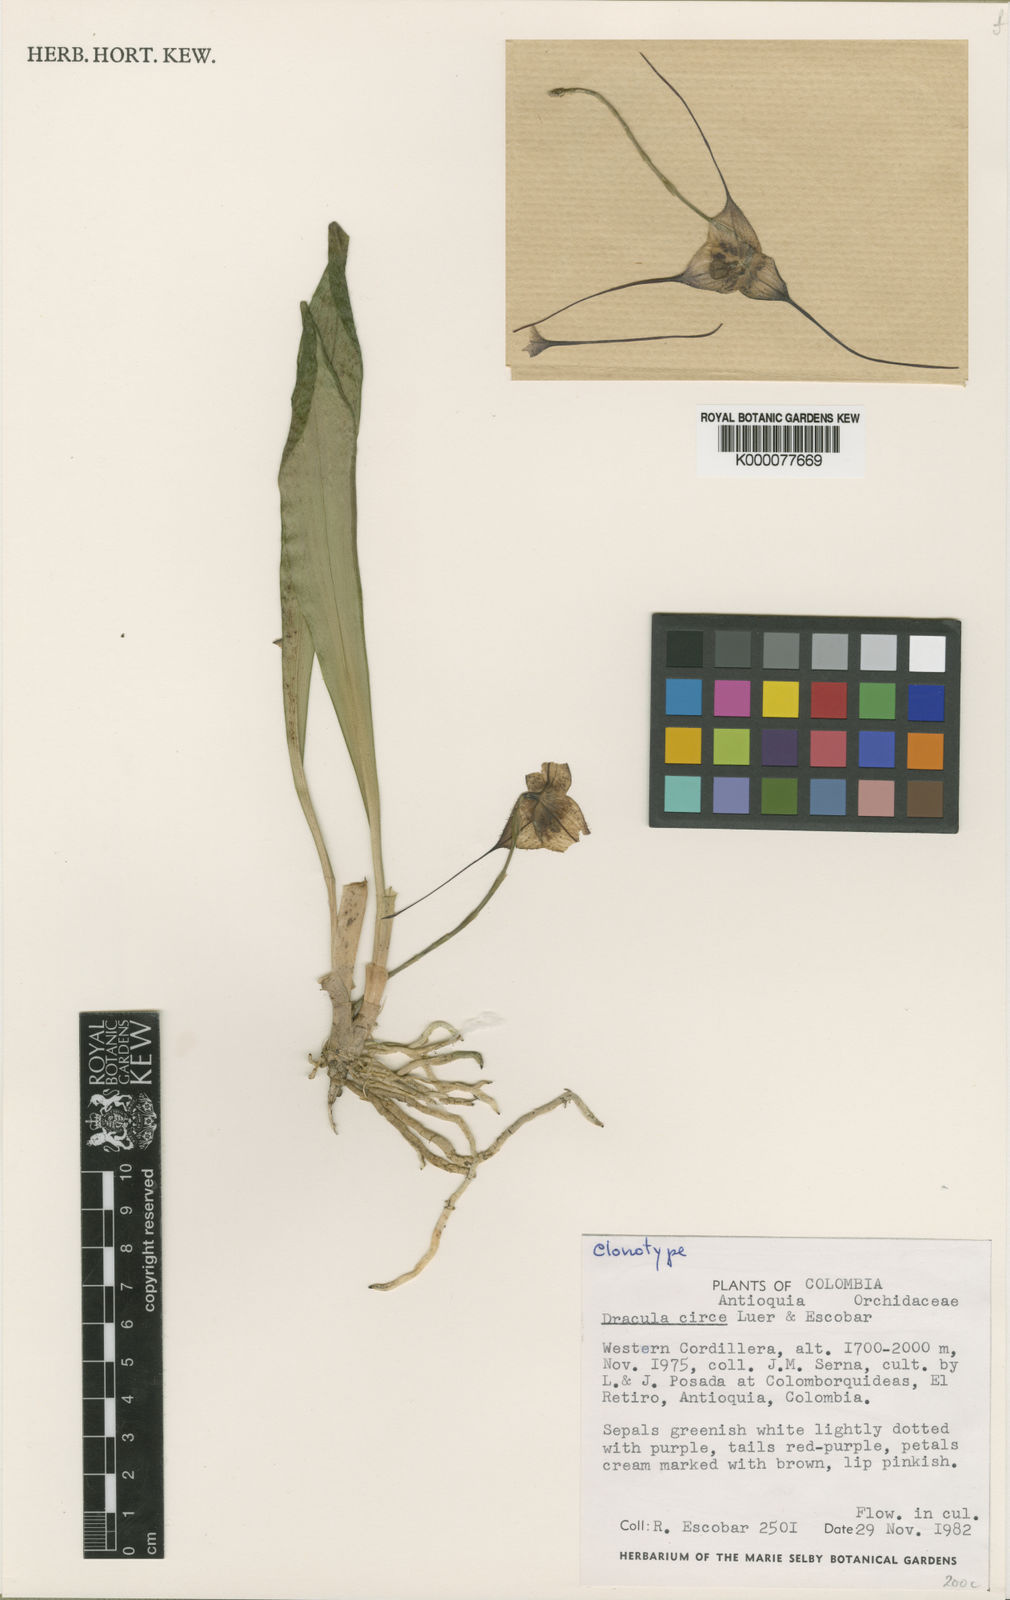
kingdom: Plantae
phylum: Tracheophyta
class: Liliopsida
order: Asparagales
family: Orchidaceae
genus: Dracula
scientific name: Dracula circe
